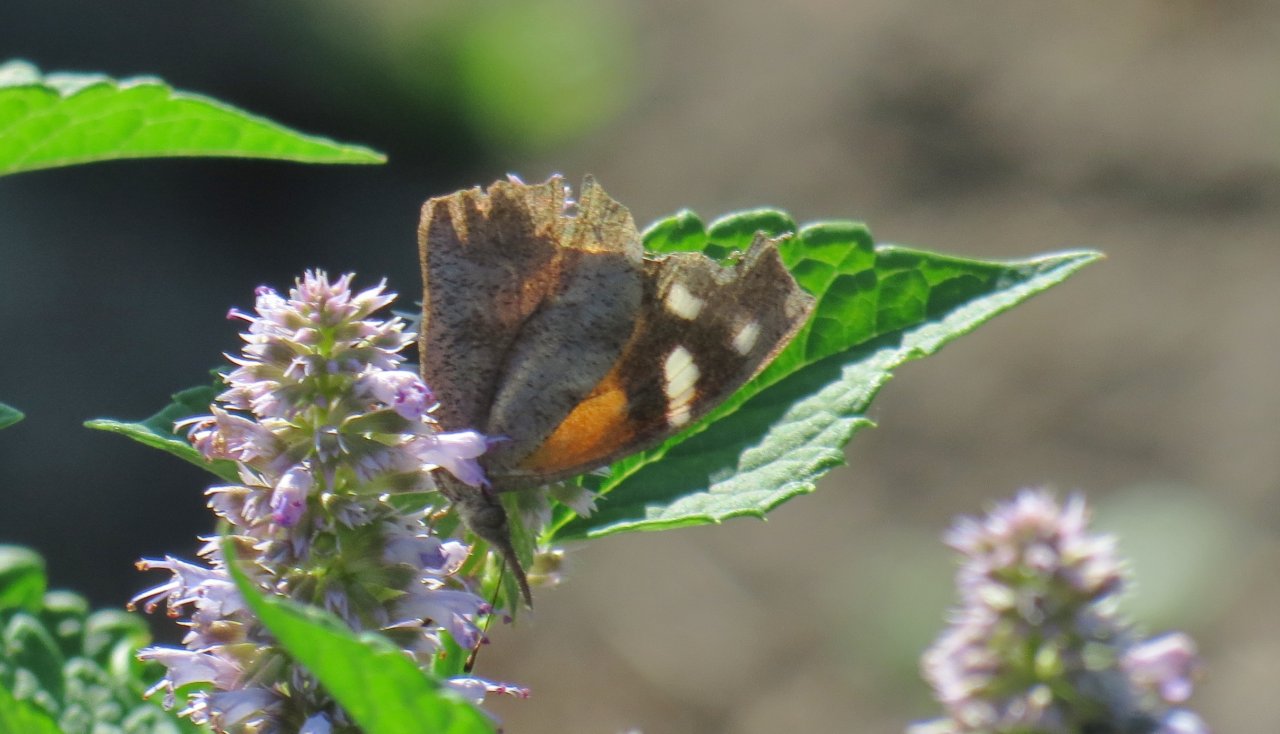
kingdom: Animalia
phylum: Arthropoda
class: Insecta
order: Lepidoptera
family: Nymphalidae
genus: Libytheana
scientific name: Libytheana carinenta
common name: American Snout
